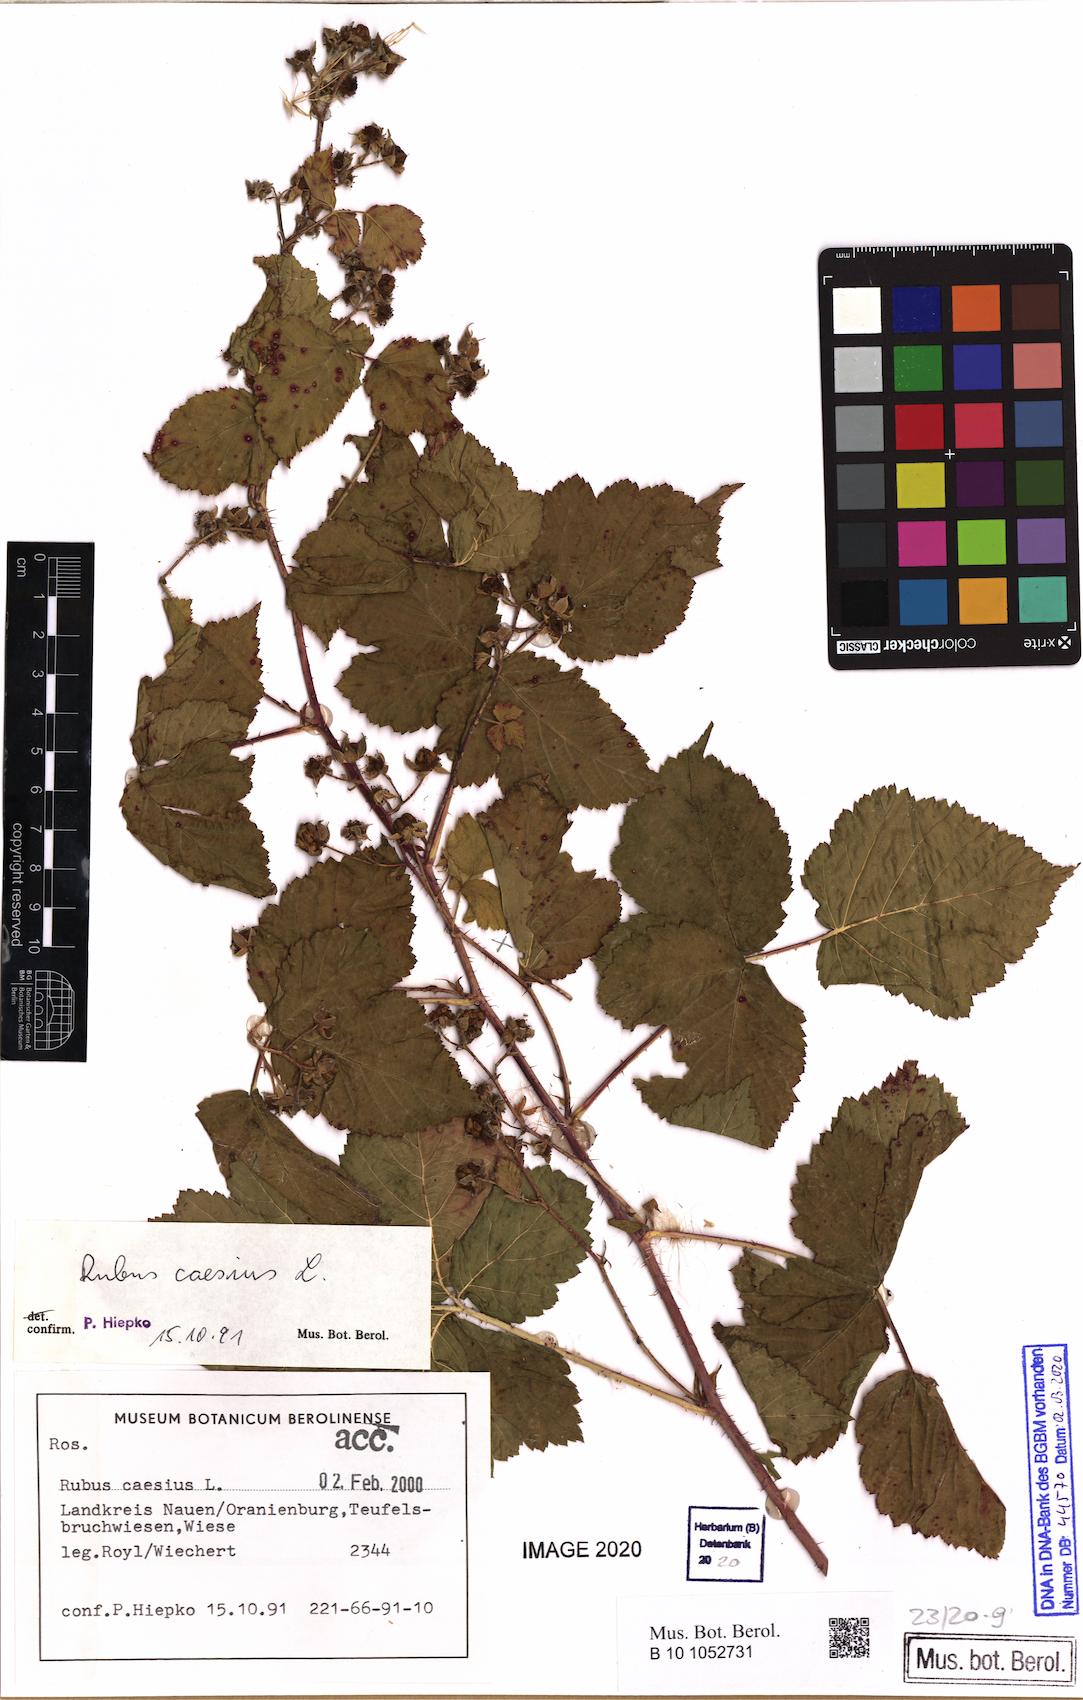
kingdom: Plantae
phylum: Tracheophyta
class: Magnoliopsida
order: Rosales
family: Rosaceae
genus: Rubus
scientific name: Rubus caesius
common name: Dewberry
